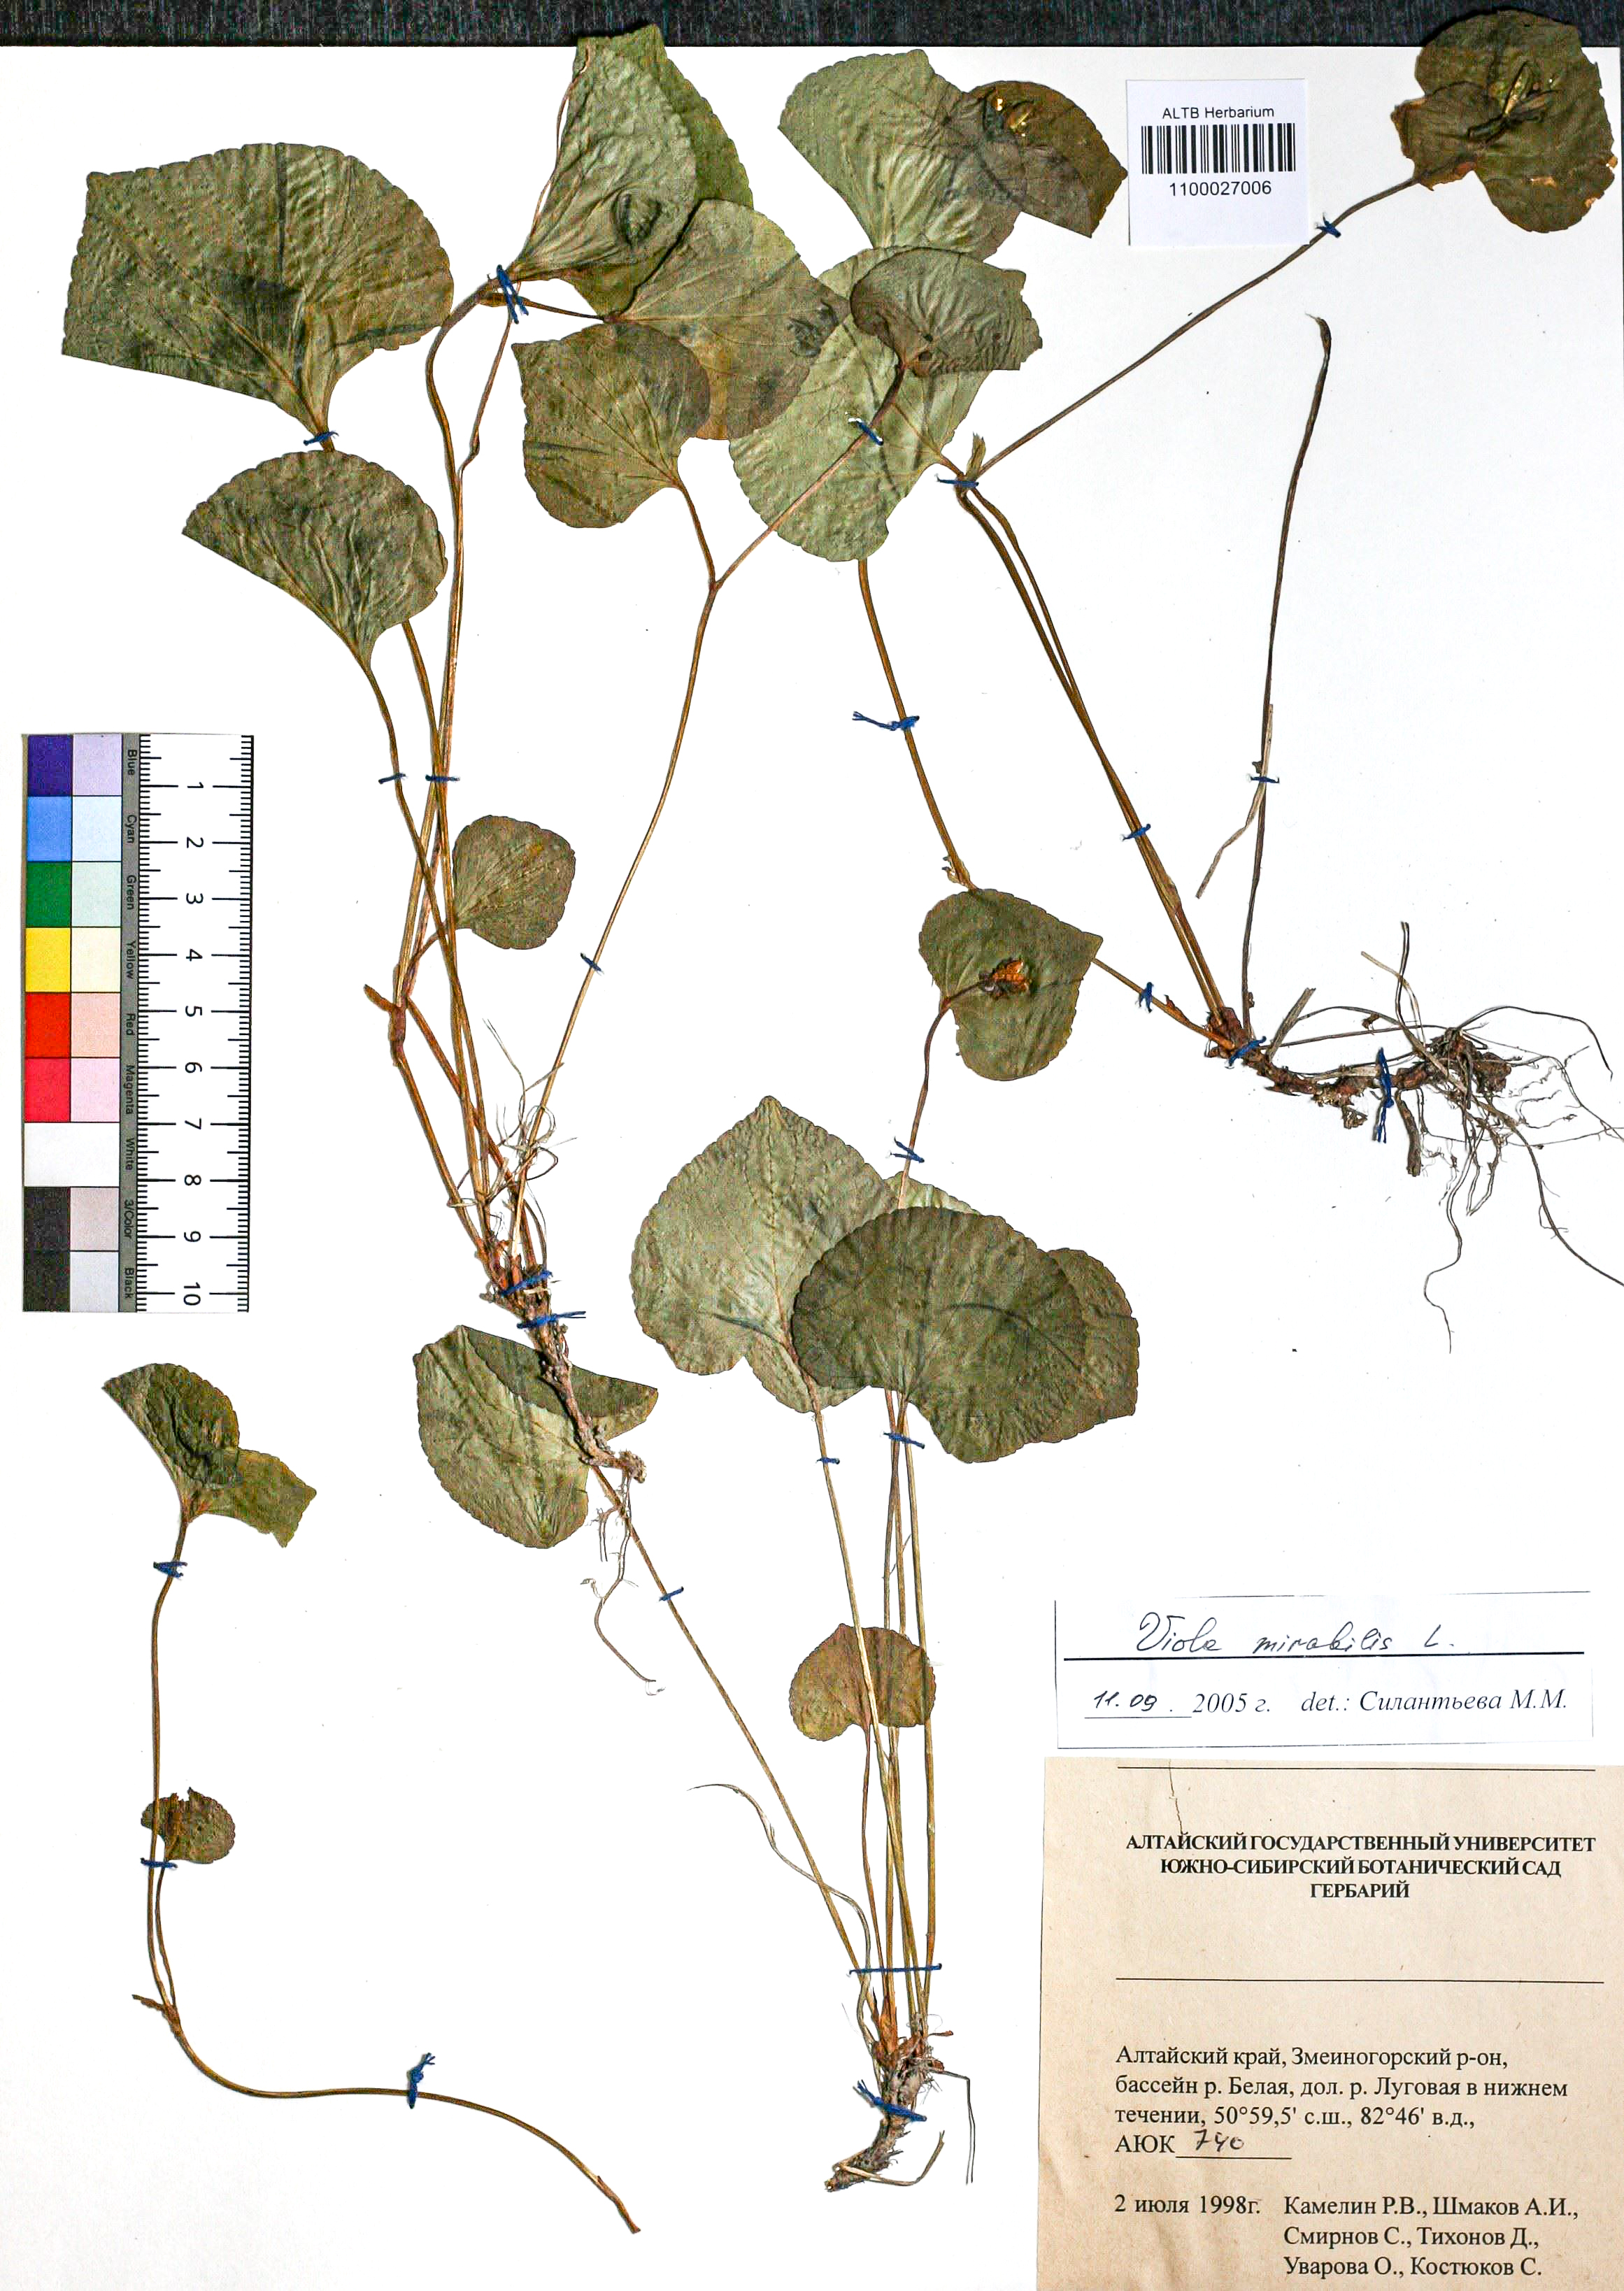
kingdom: Plantae
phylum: Tracheophyta
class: Magnoliopsida
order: Malpighiales
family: Violaceae
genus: Viola
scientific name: Viola mirabilis
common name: Wonder violet
